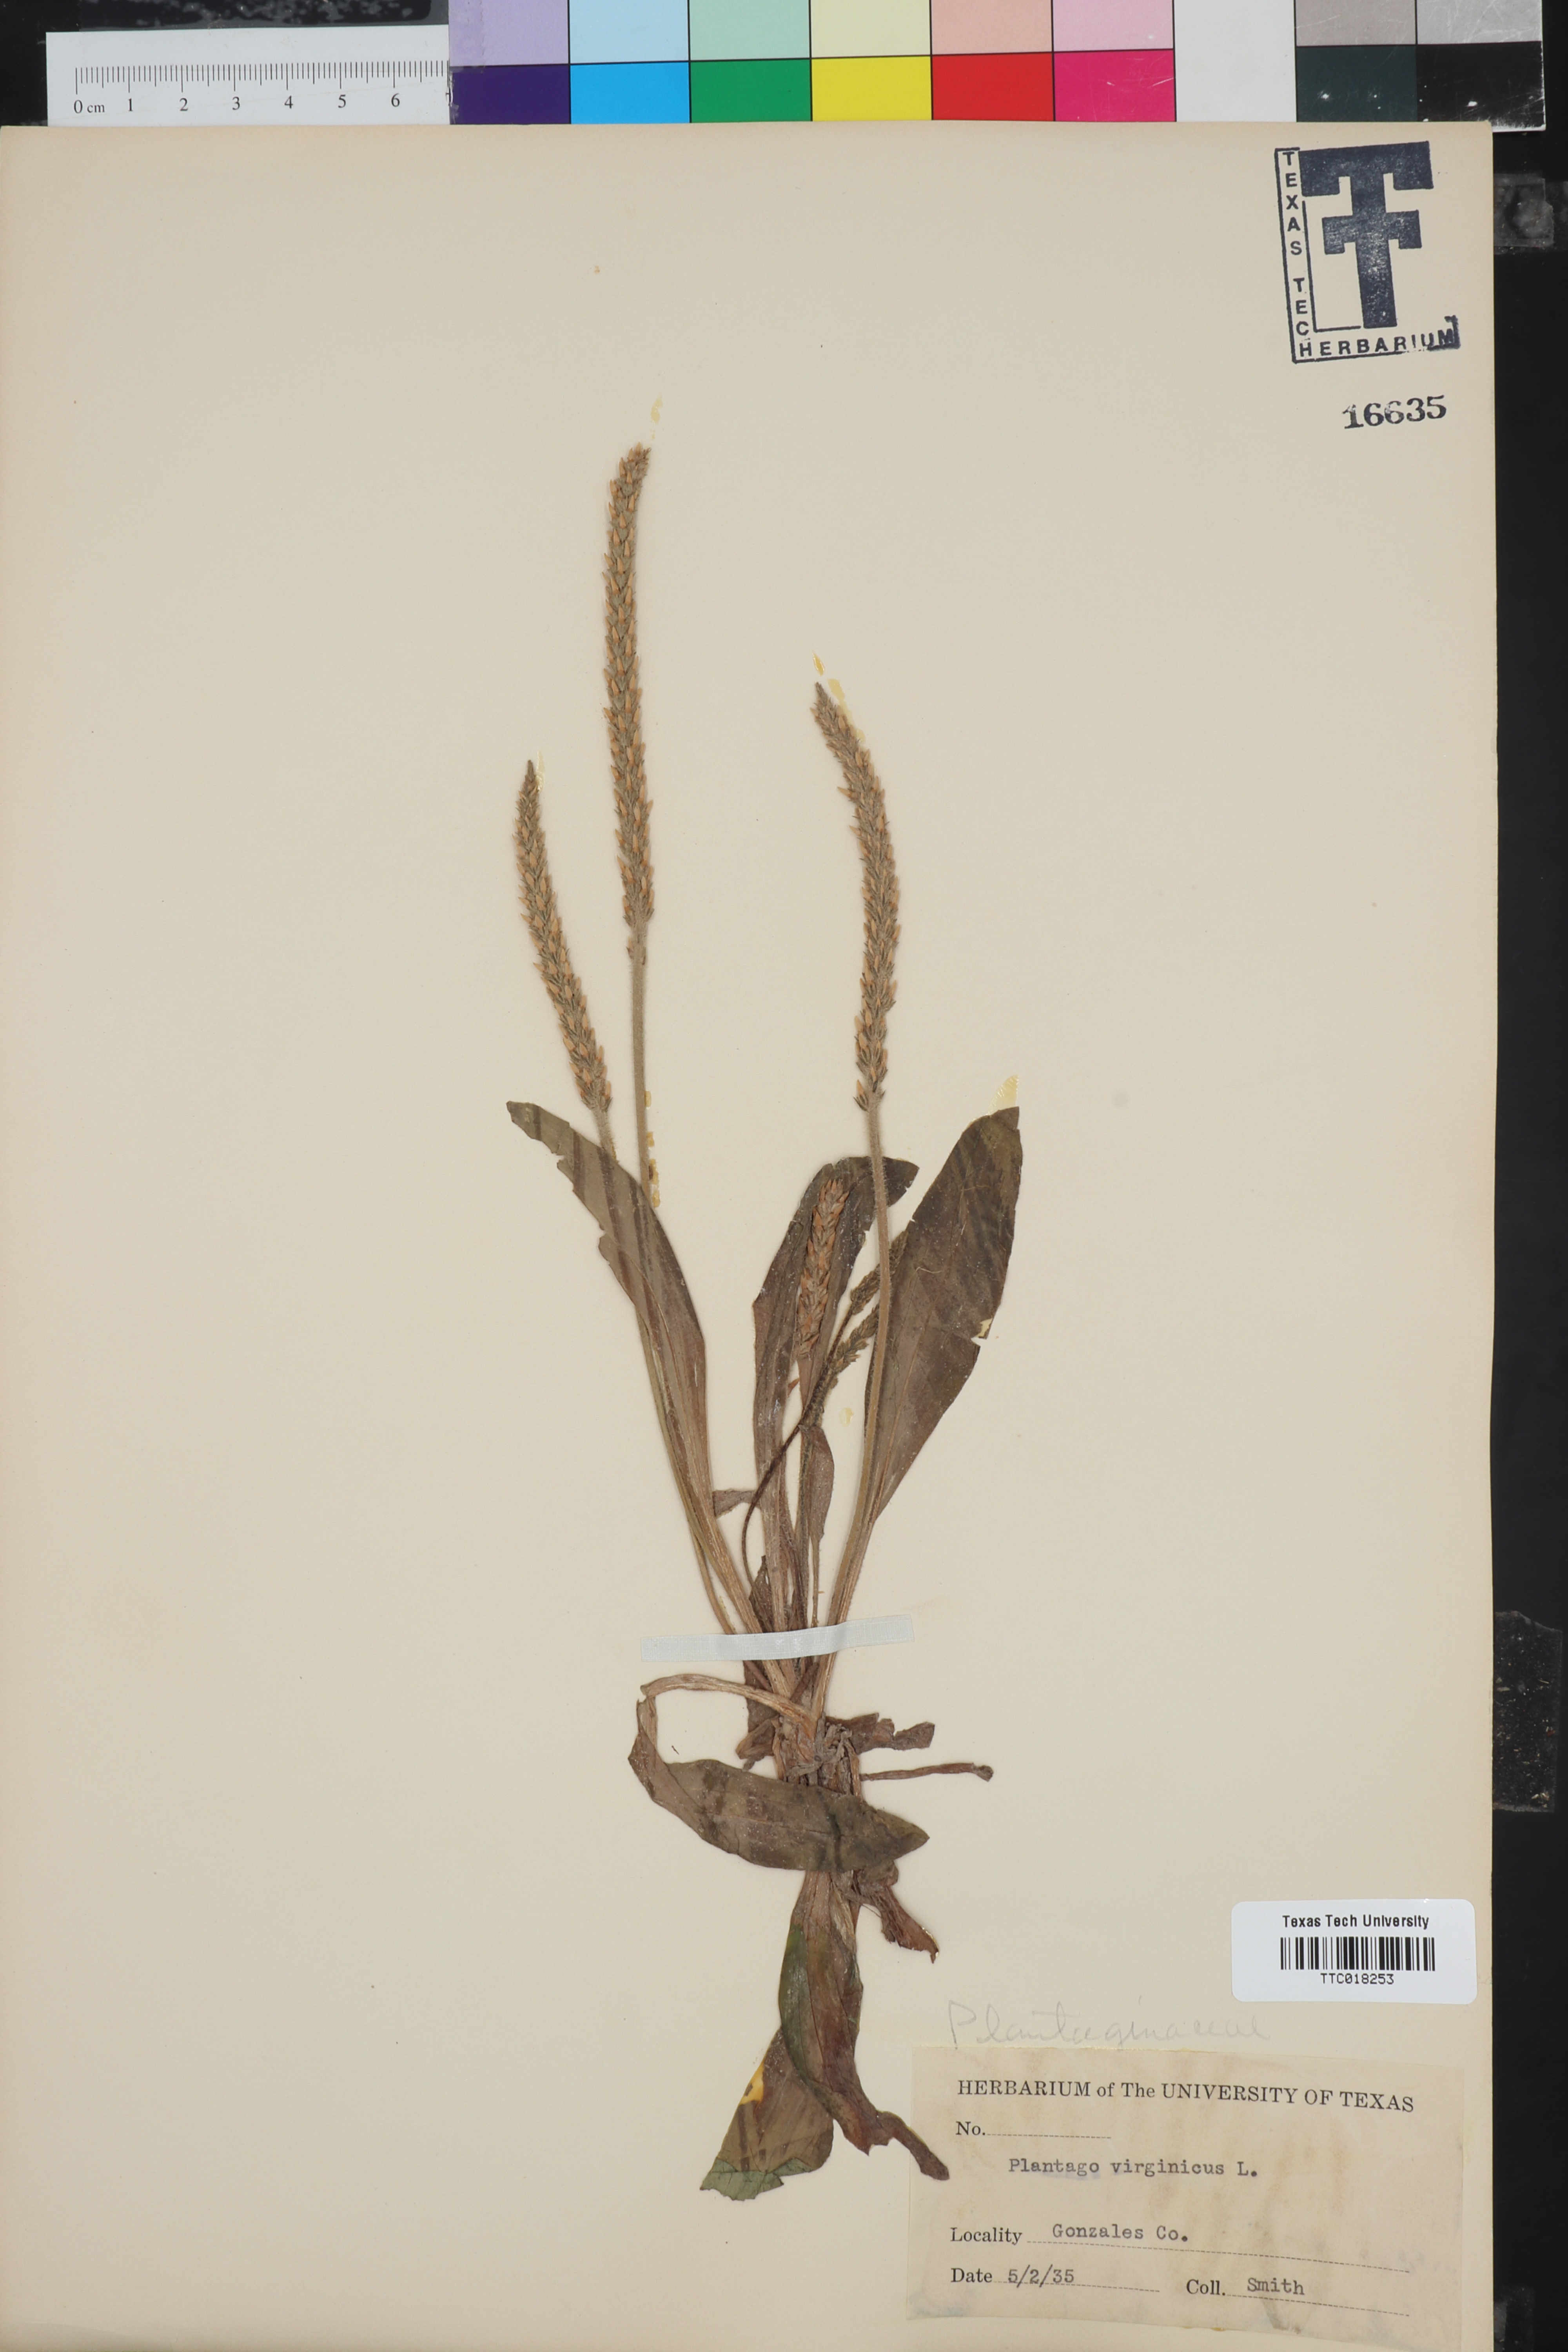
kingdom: Plantae
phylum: Tracheophyta
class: Magnoliopsida
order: Lamiales
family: Plantaginaceae
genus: Plantago
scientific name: Plantago virginica
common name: Hoary plantain
